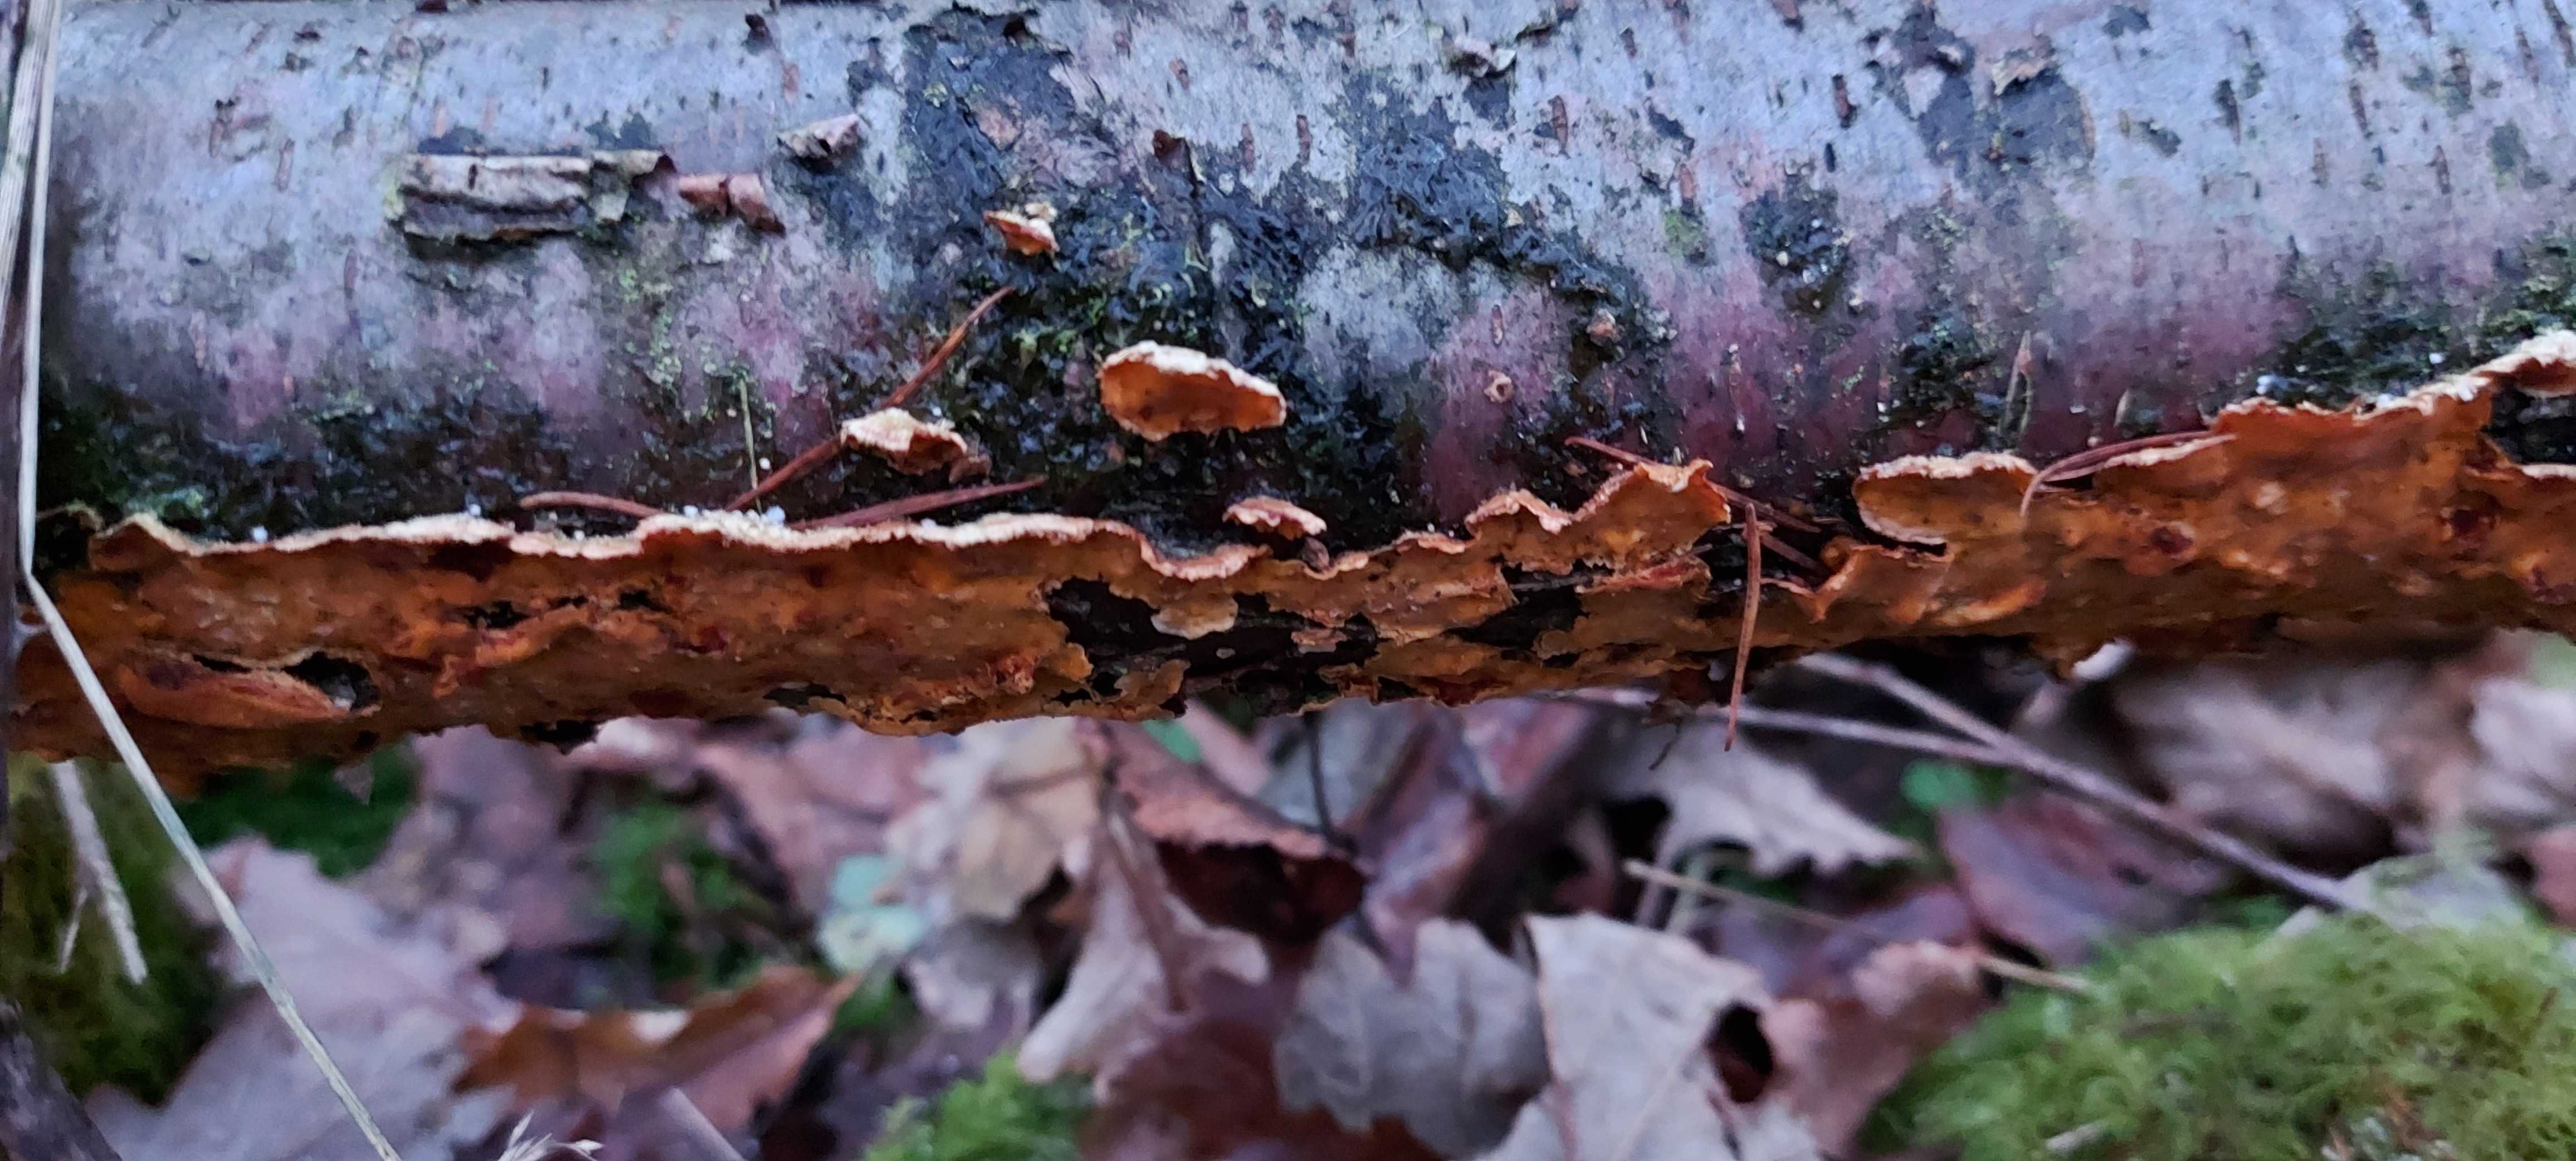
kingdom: Fungi
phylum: Basidiomycota
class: Agaricomycetes
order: Russulales
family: Stereaceae
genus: Stereum
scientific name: Stereum hirsutum
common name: håret lædersvamp
